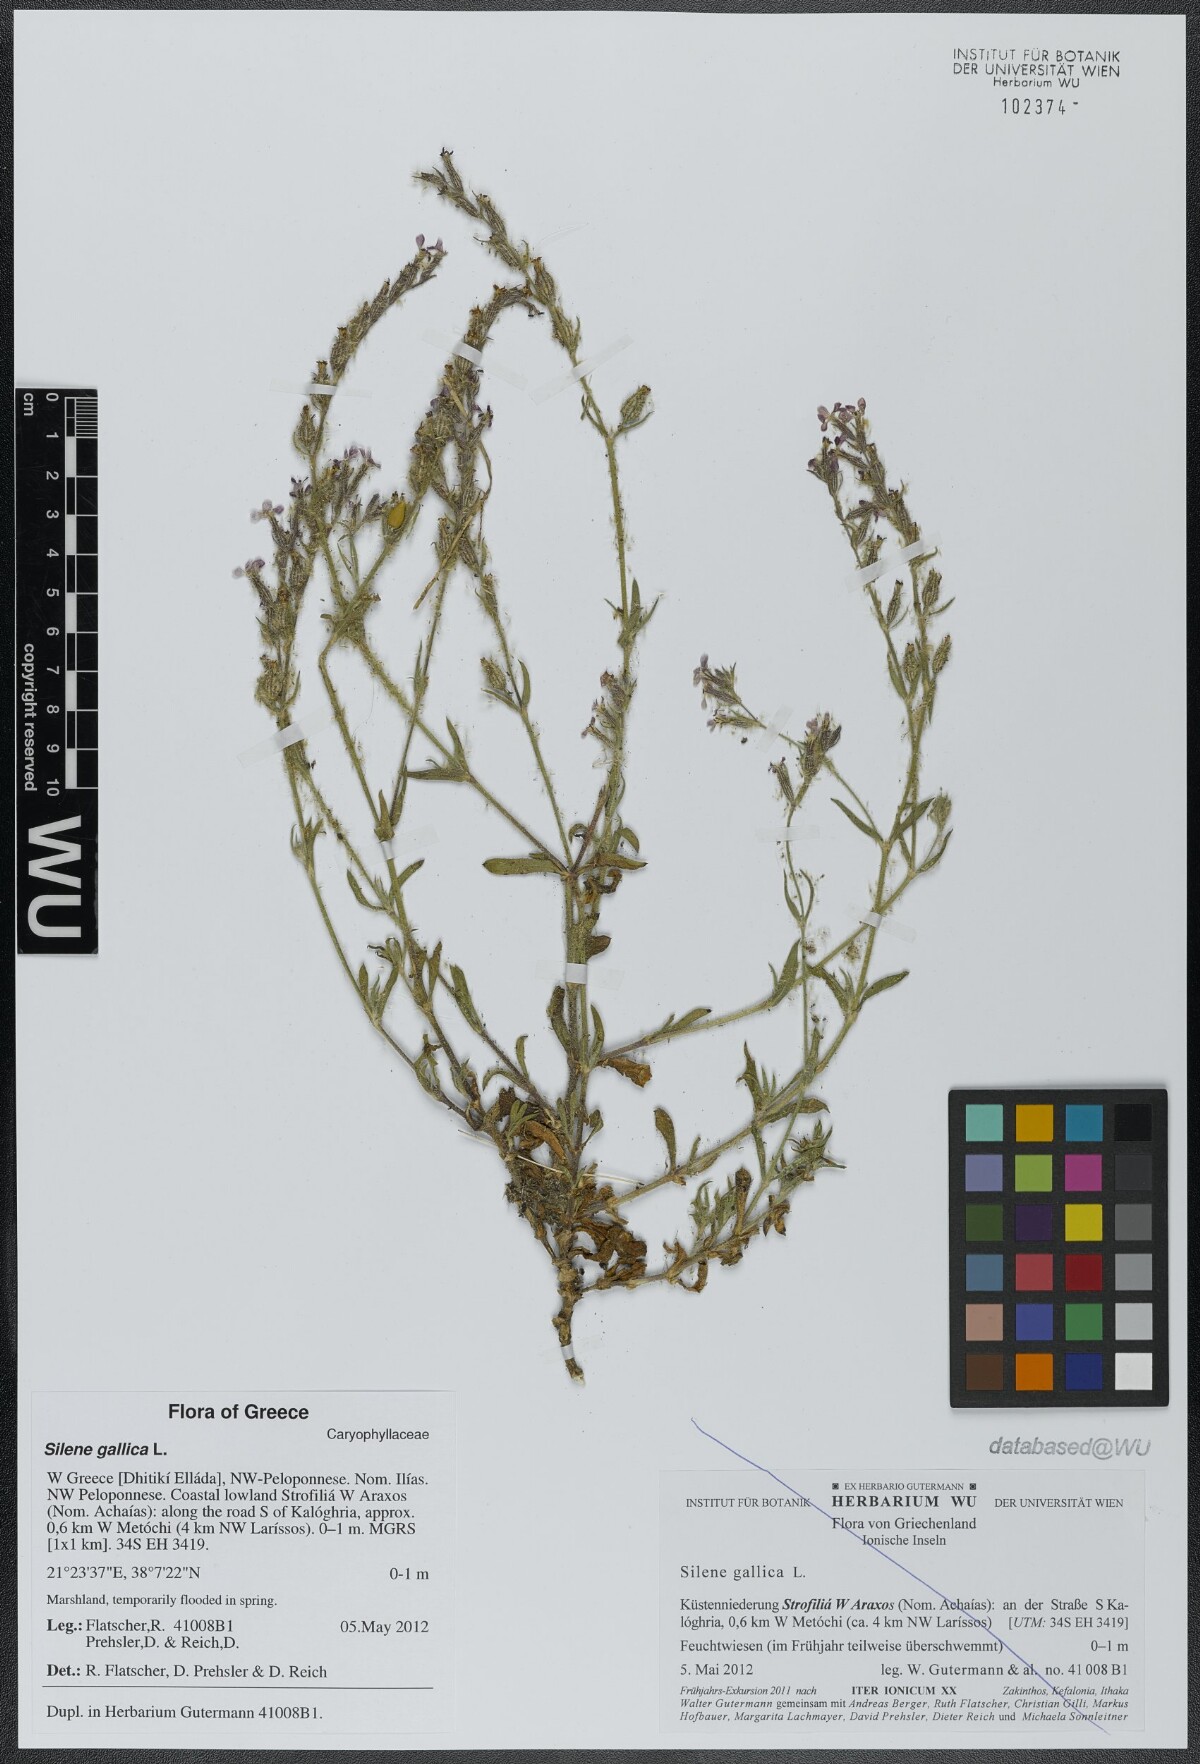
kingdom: Plantae
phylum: Tracheophyta
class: Magnoliopsida
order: Caryophyllales
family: Caryophyllaceae
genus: Silene
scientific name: Silene gallica
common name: Small-flowered catchfly
